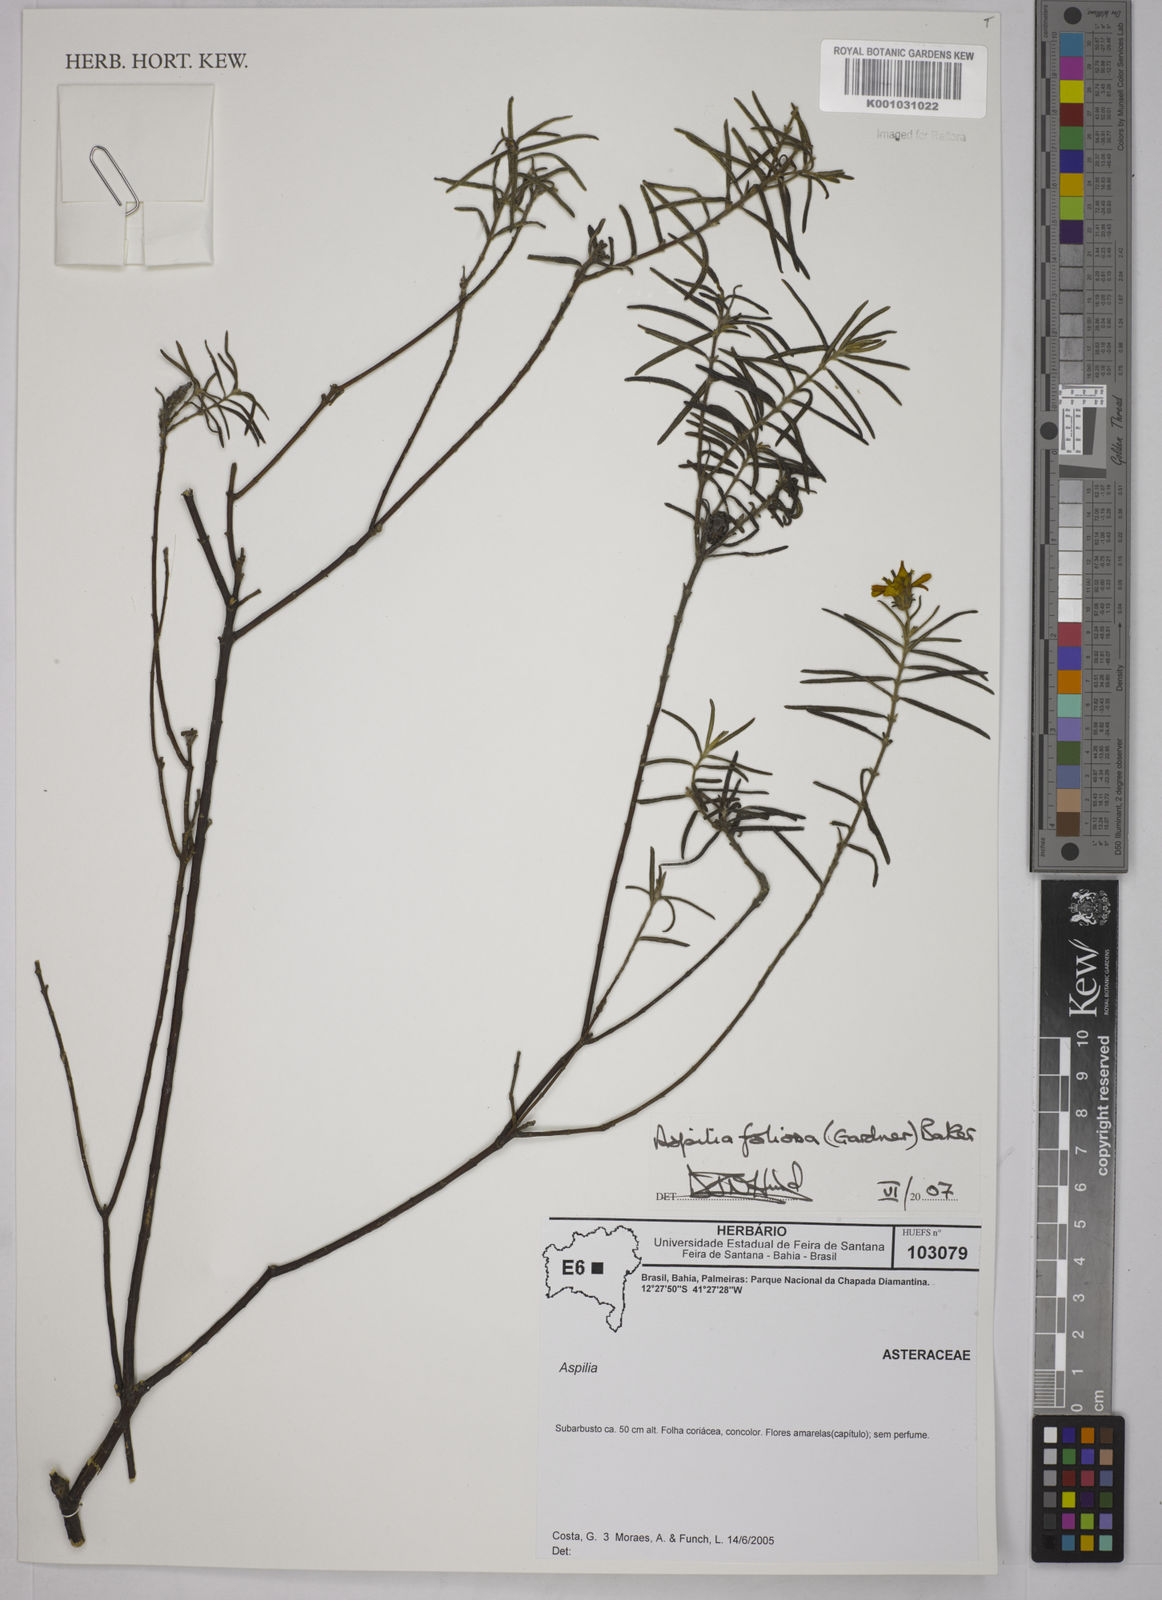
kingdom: Plantae
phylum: Tracheophyta
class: Magnoliopsida
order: Asterales
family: Asteraceae
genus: Aspilia
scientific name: Aspilia
